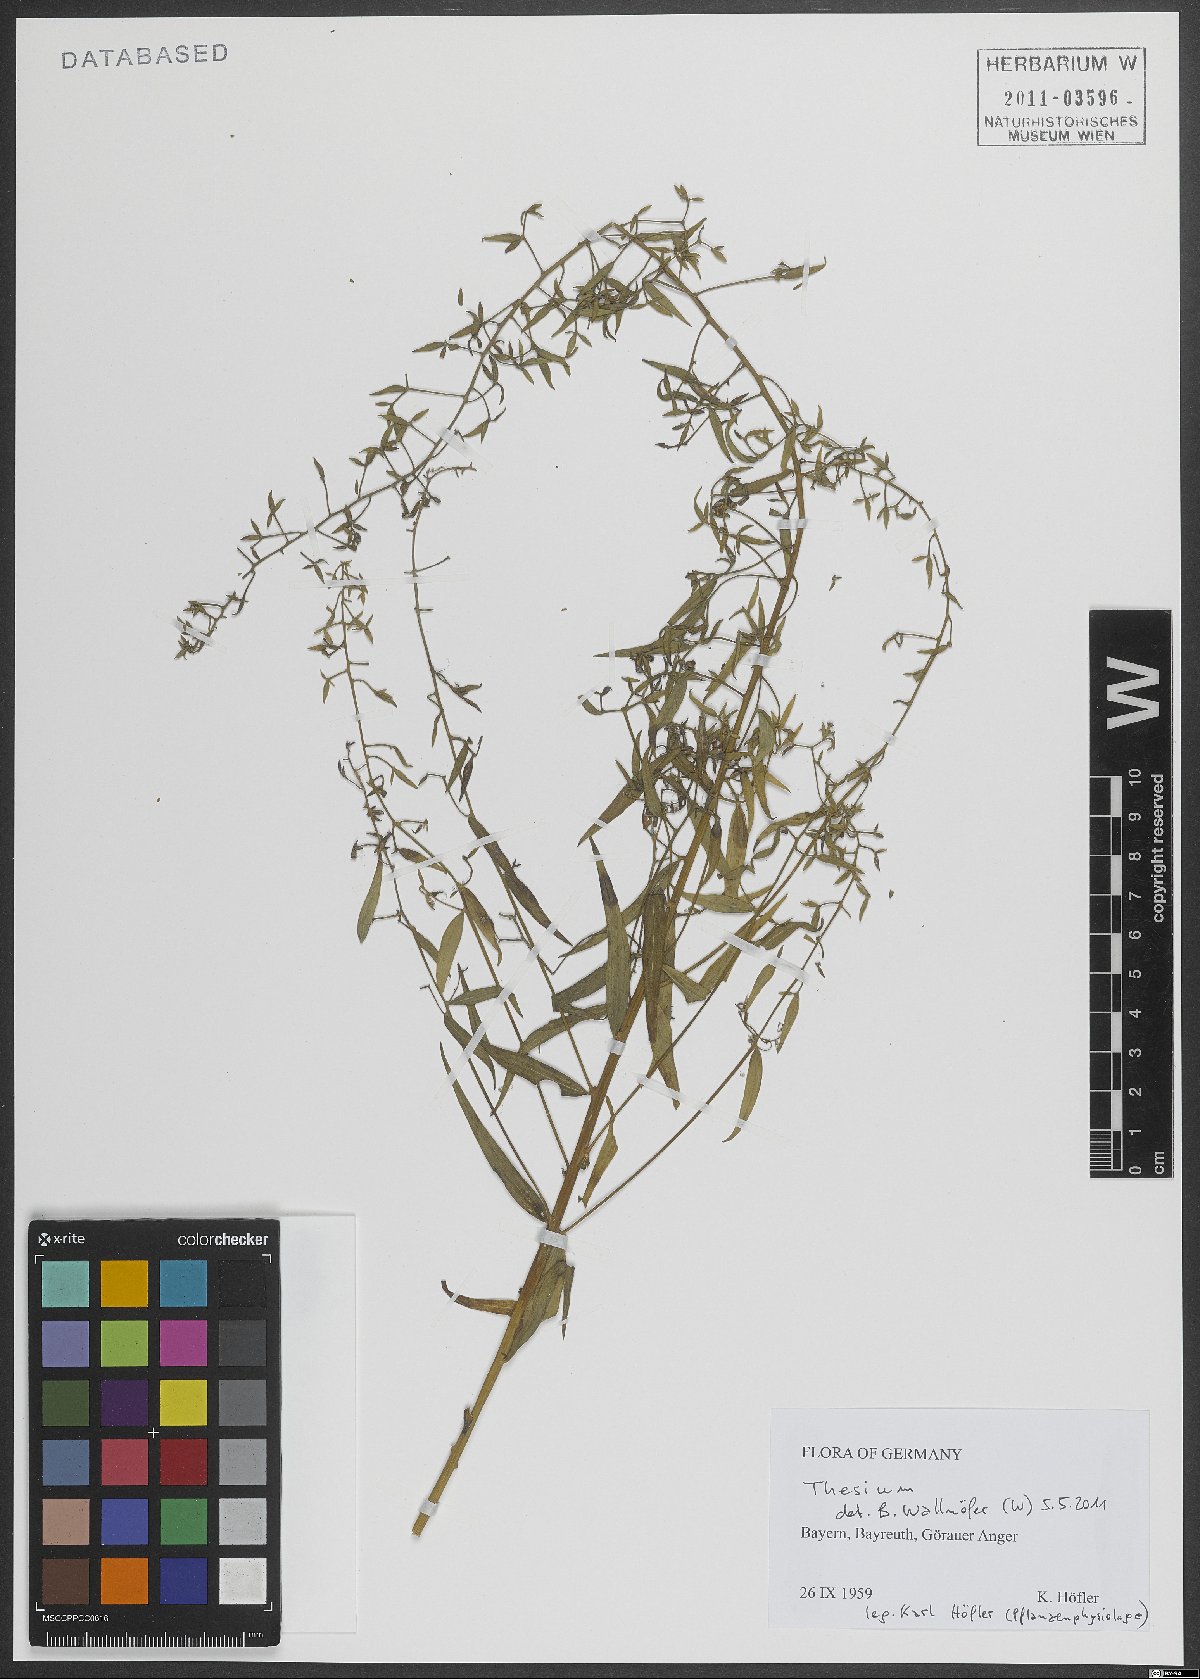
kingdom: Plantae
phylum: Tracheophyta
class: Magnoliopsida
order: Santalales
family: Thesiaceae
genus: Thesium
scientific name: Thesium
